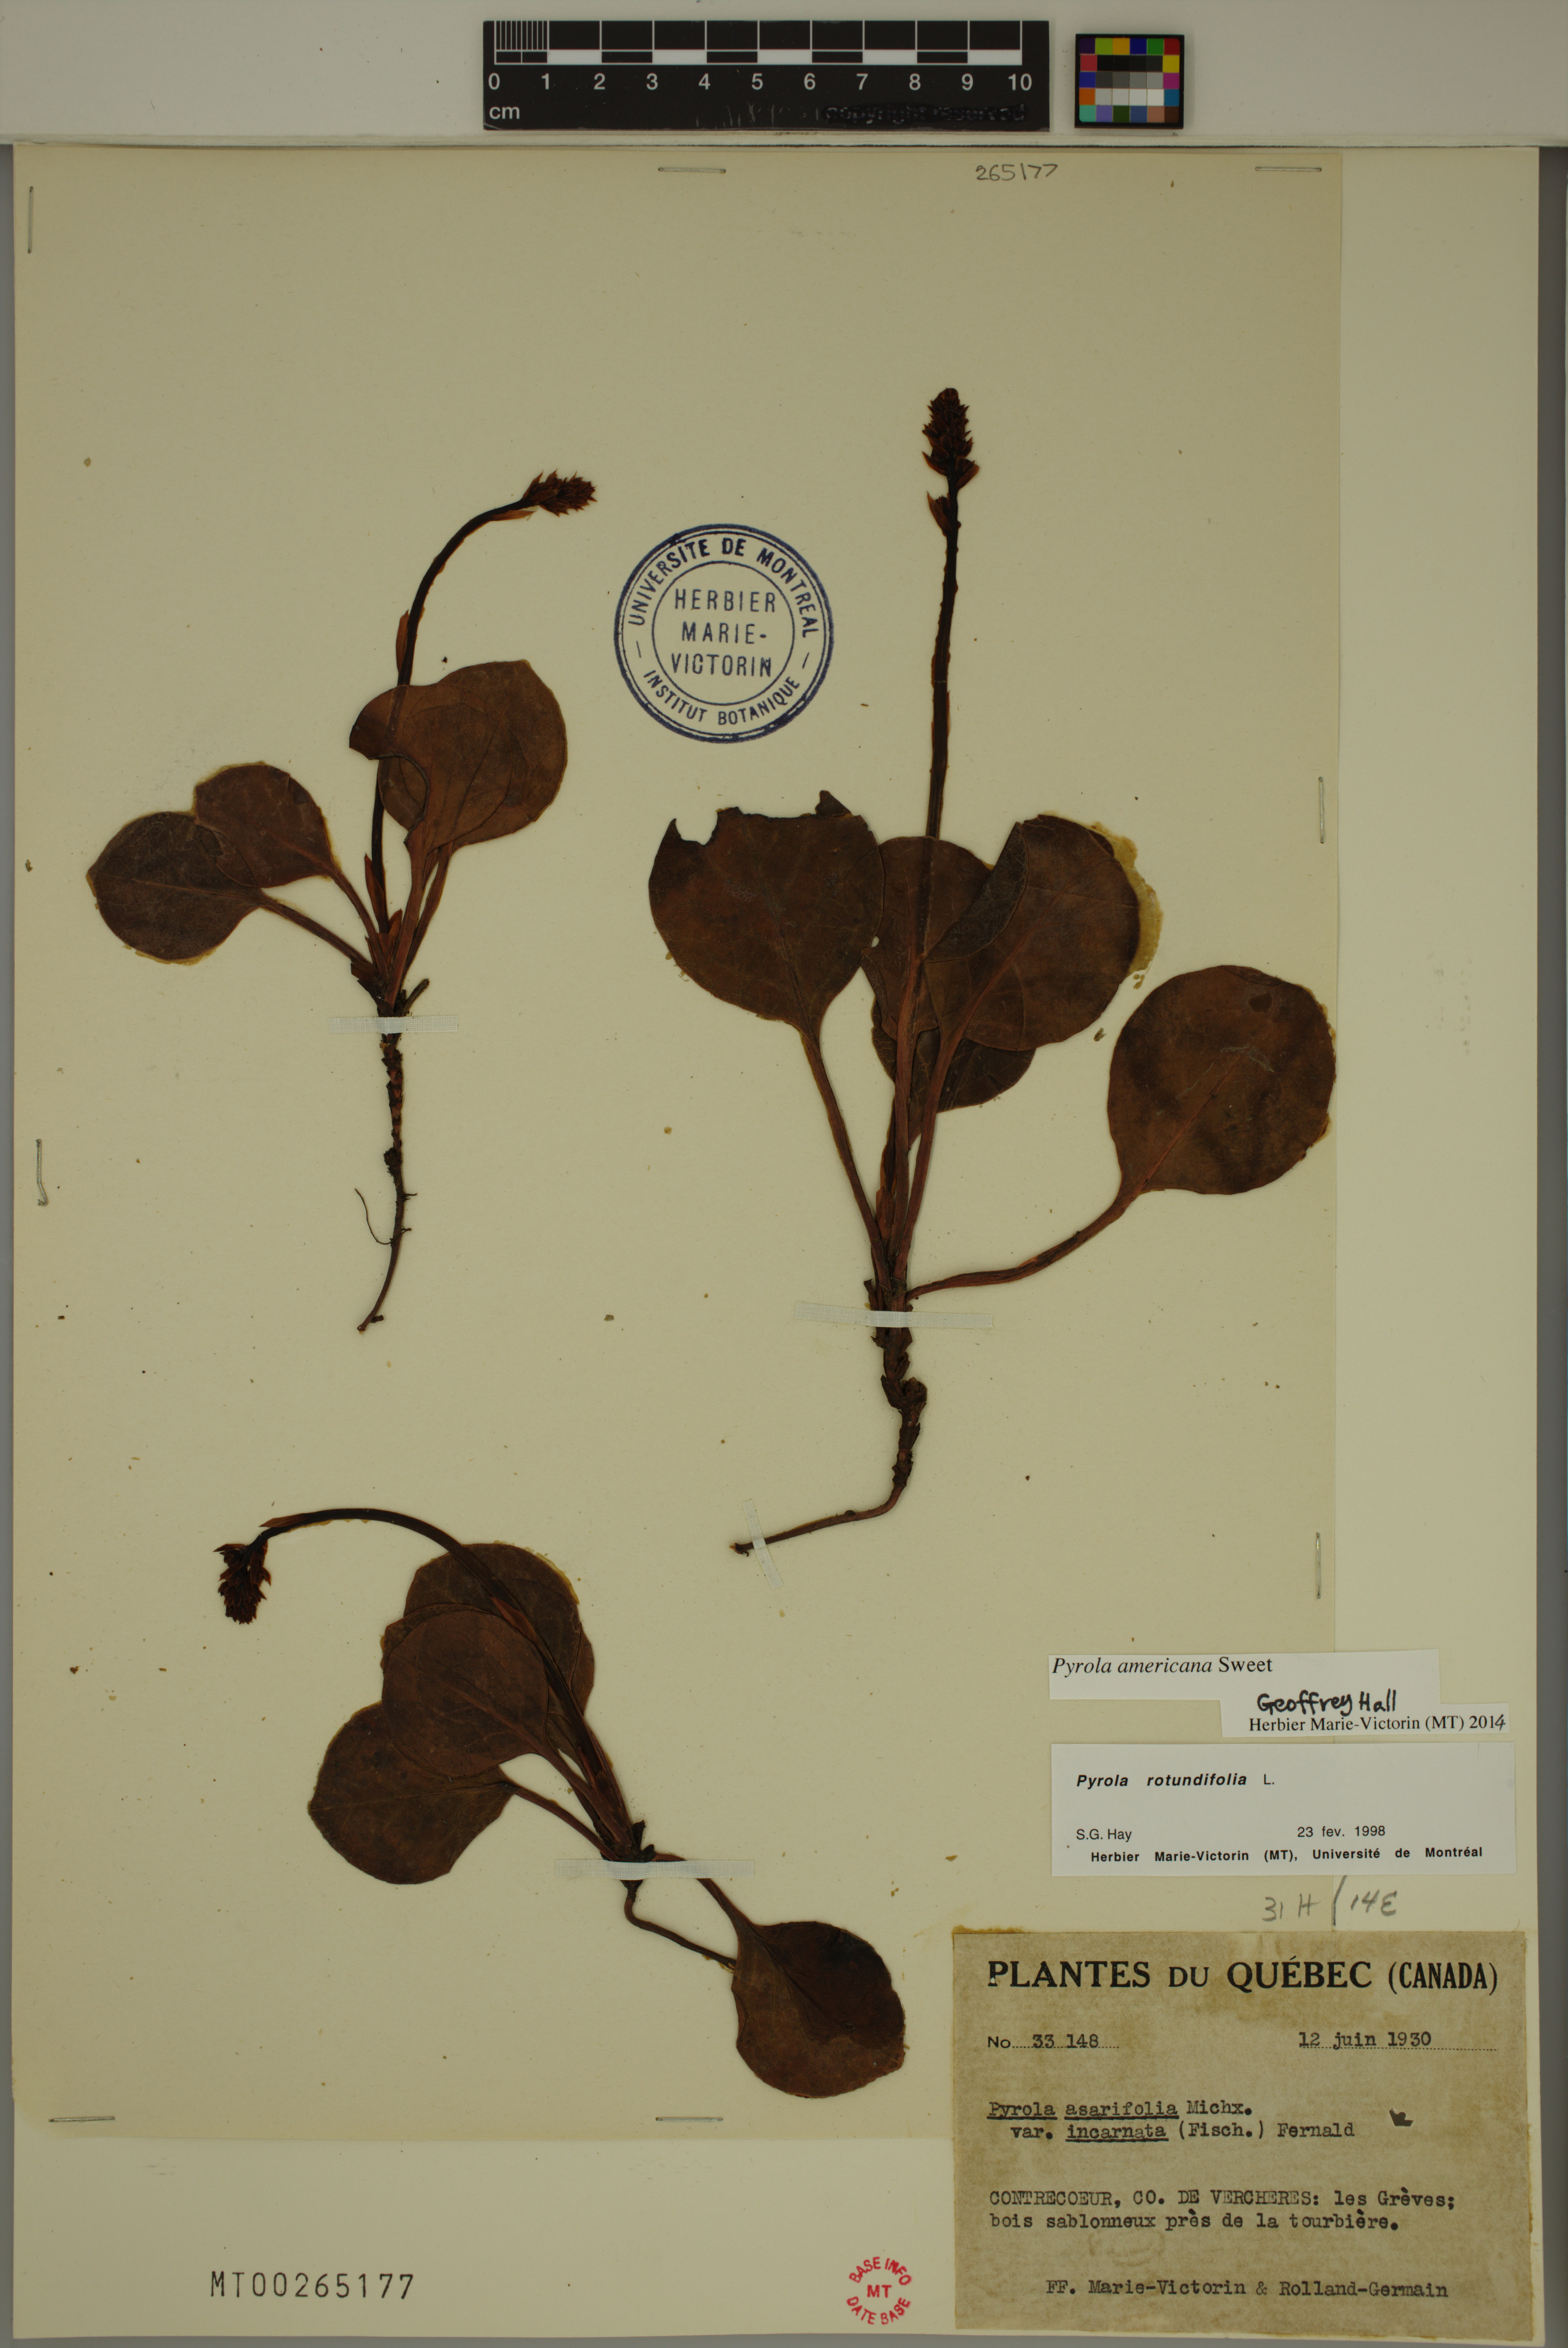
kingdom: Plantae
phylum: Tracheophyta
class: Magnoliopsida
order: Ericales
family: Ericaceae
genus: Pyrola
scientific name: Pyrola americana
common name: American wintergreen
